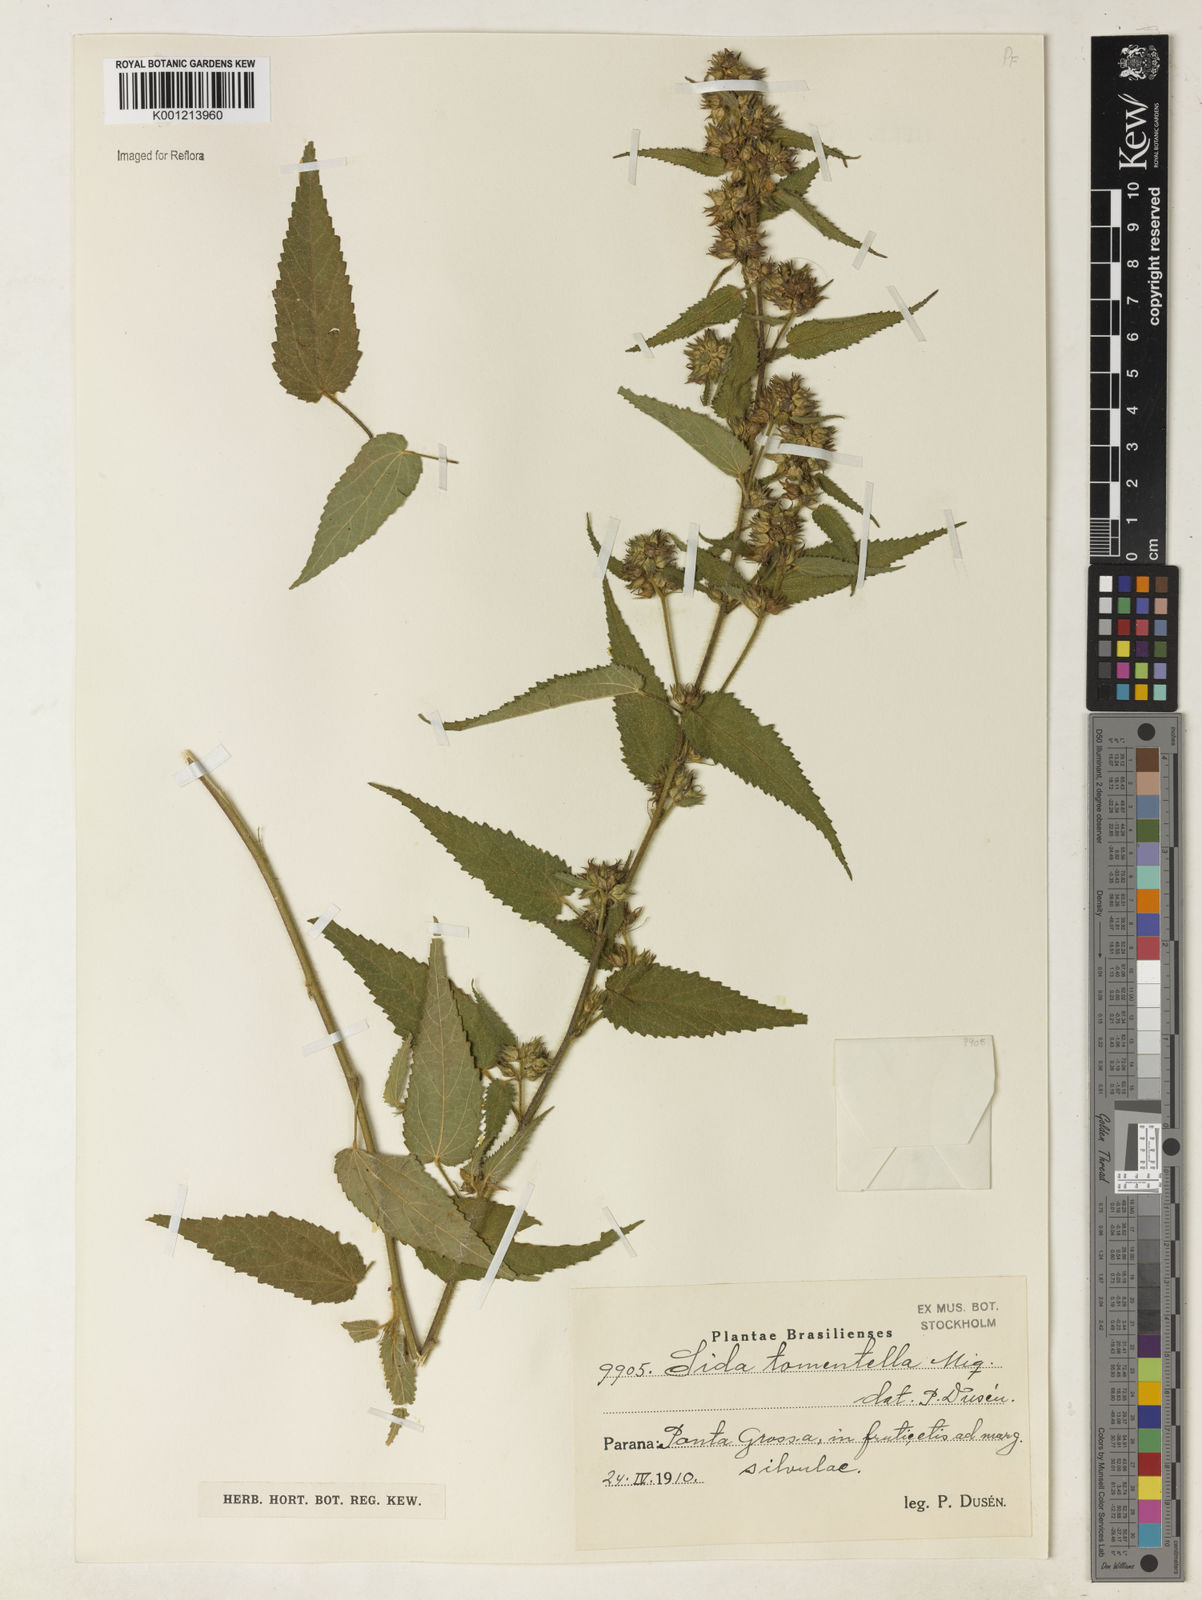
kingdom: Plantae
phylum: Tracheophyta
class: Magnoliopsida
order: Malvales
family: Malvaceae
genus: Sida
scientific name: Sida caudata
